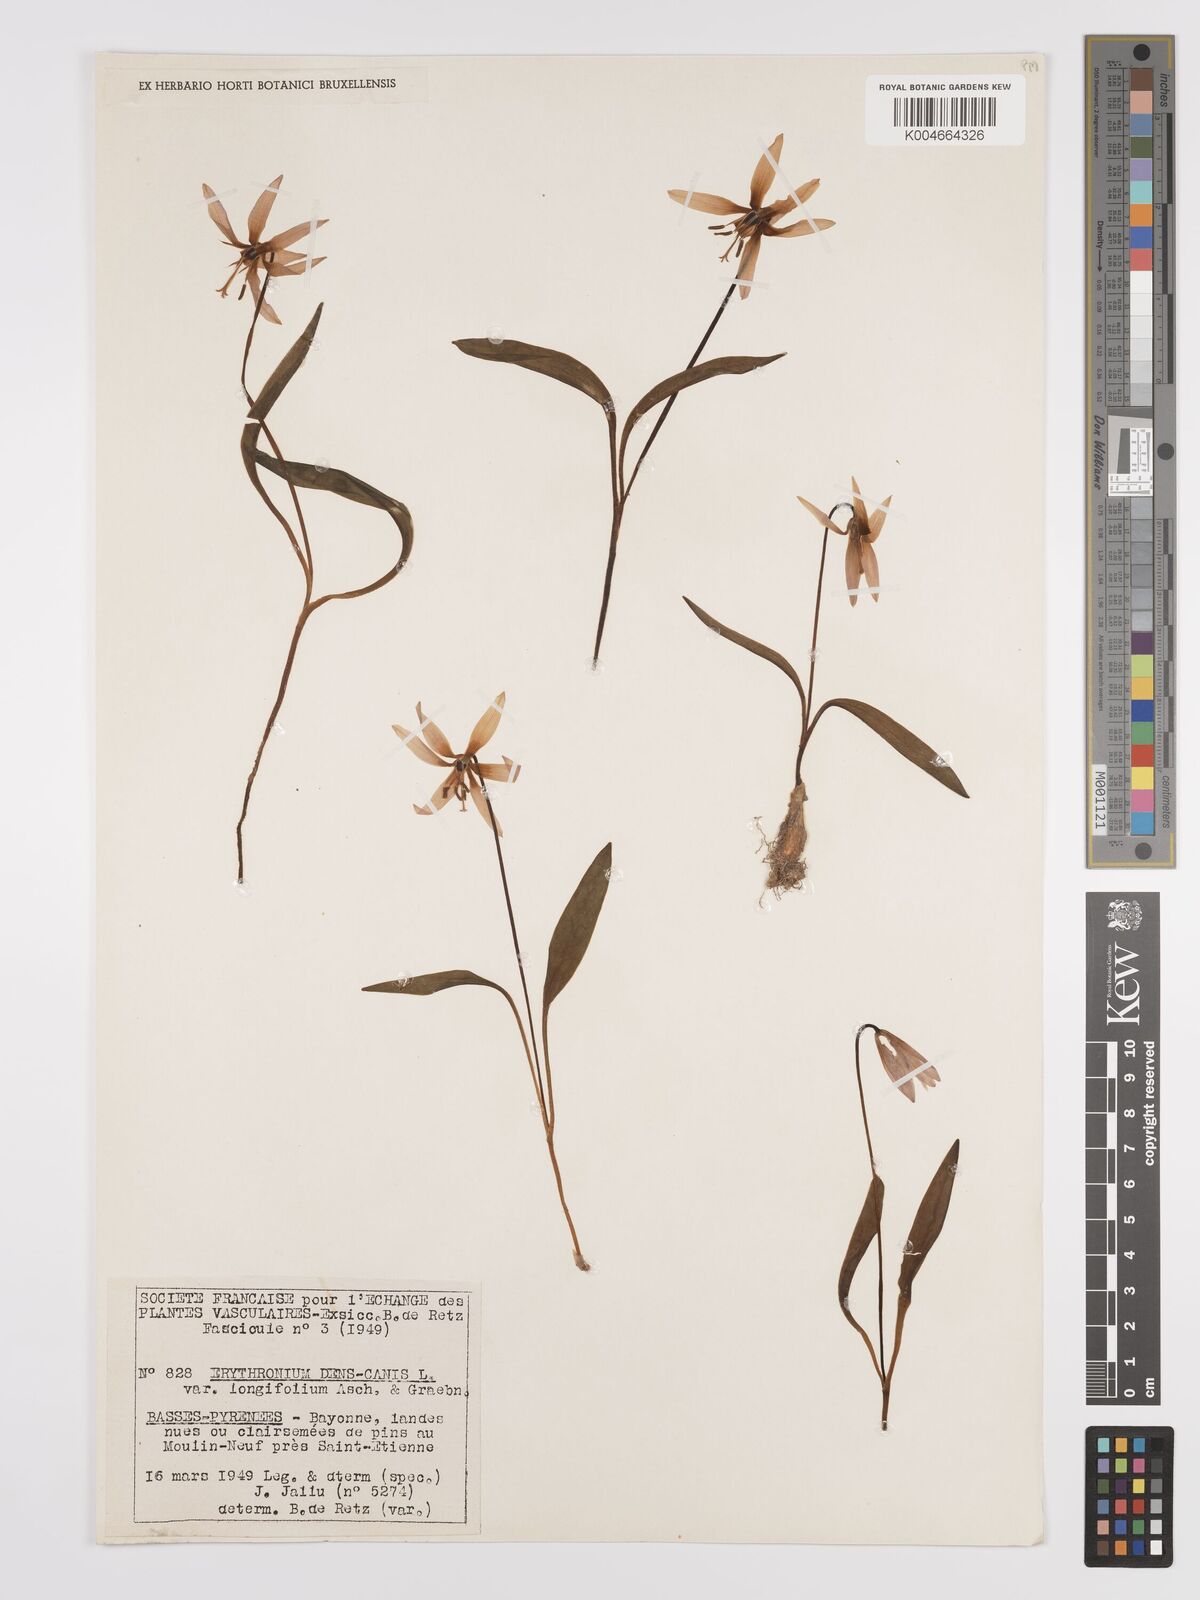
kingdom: Plantae
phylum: Tracheophyta
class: Liliopsida
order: Liliales
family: Liliaceae
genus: Erythronium
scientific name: Erythronium dens-canis
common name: Dog's-tooth-violet
